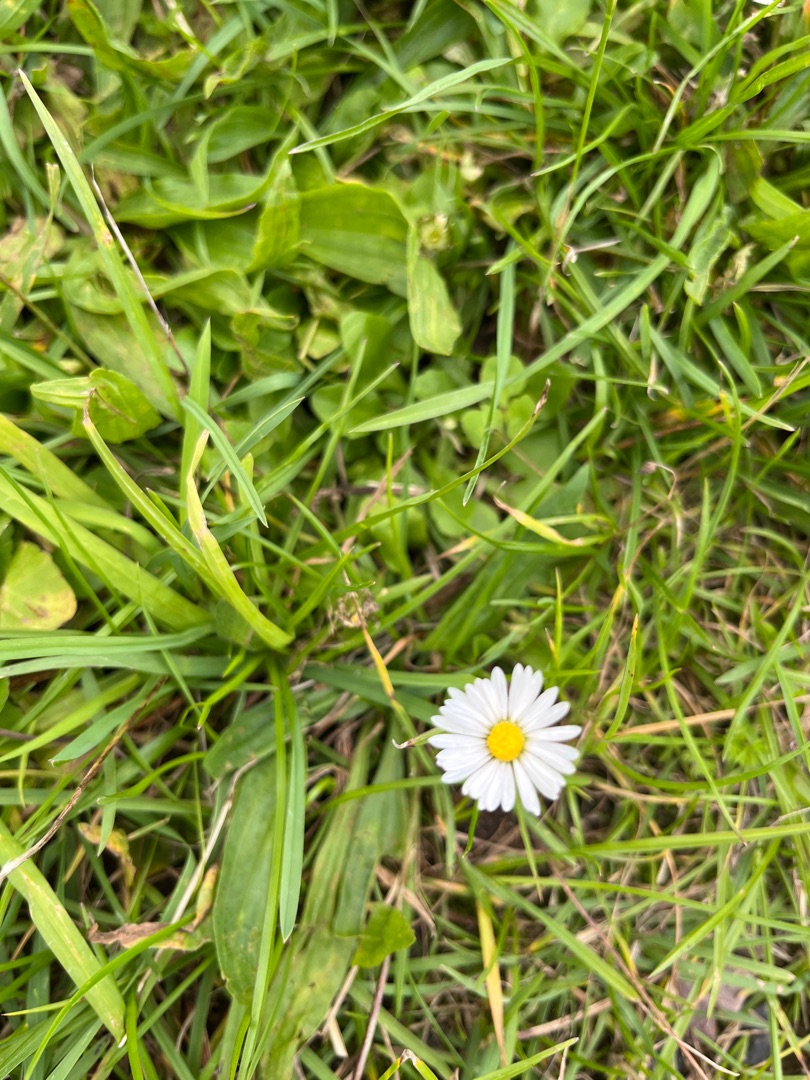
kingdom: Plantae
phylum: Tracheophyta
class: Magnoliopsida
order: Asterales
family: Asteraceae
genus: Bellis
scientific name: Bellis perennis
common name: Tusindfryd
